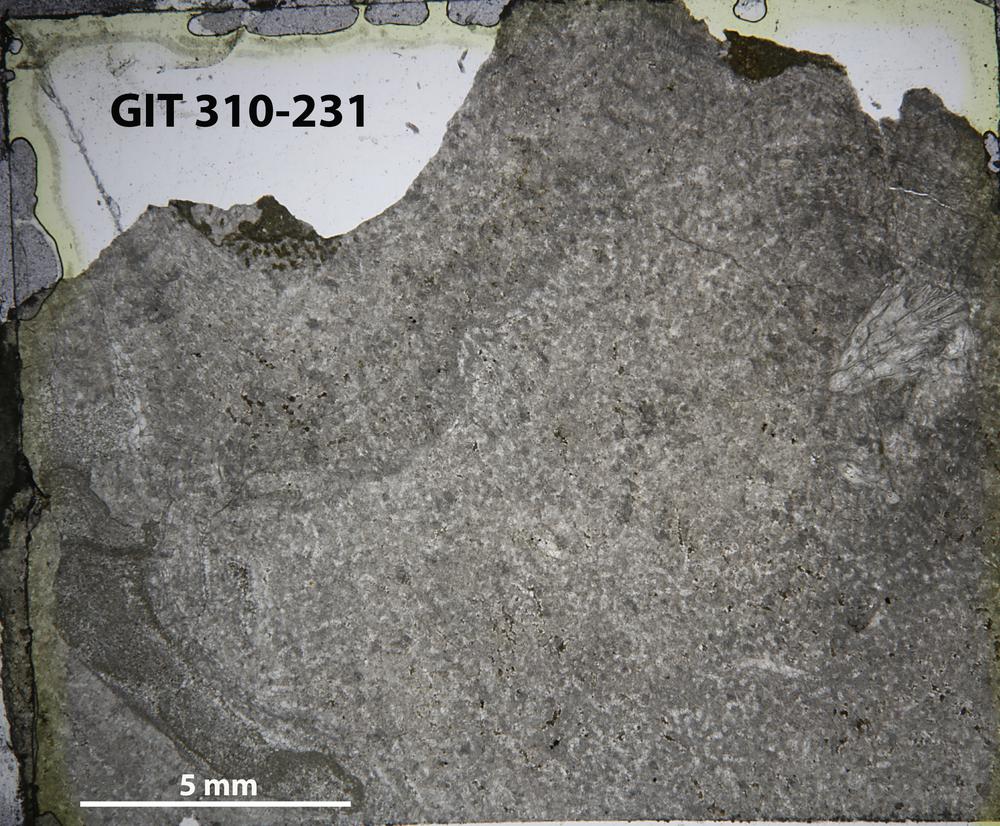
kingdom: Animalia
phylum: Porifera
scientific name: Porifera
